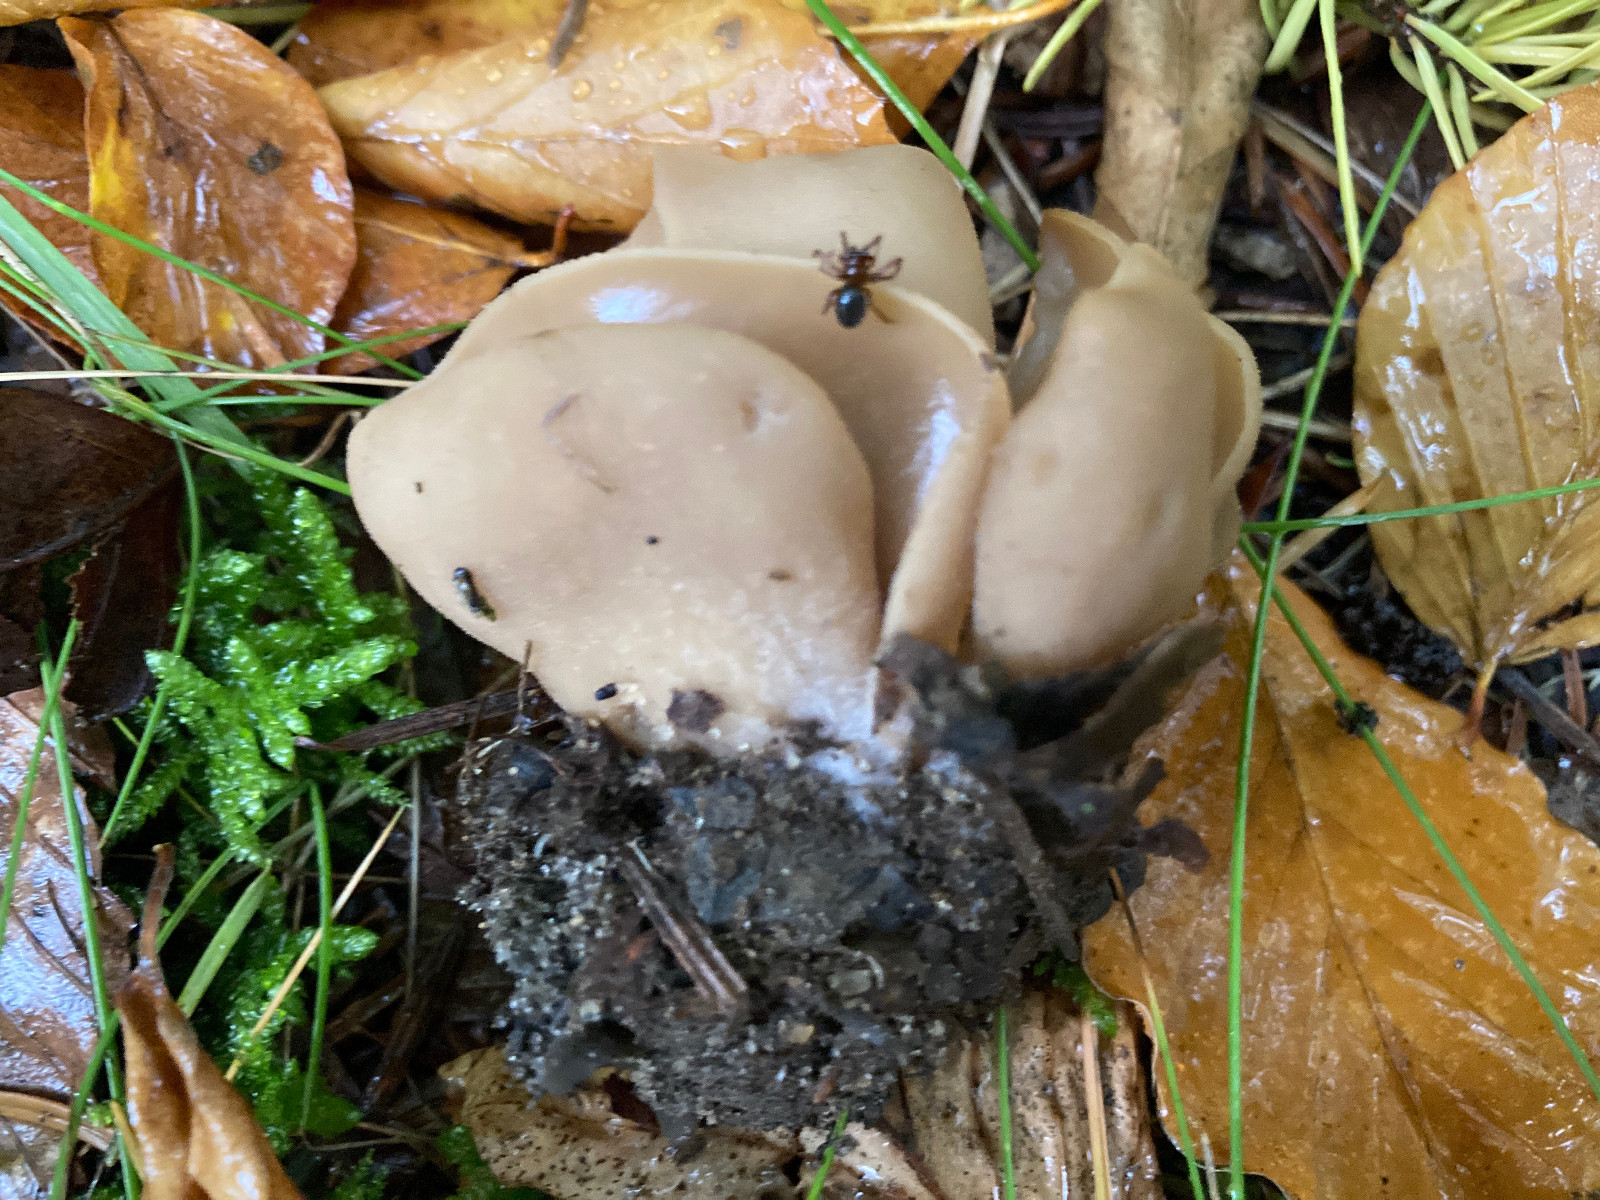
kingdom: Fungi
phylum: Ascomycota
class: Pezizomycetes
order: Pezizales
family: Otideaceae
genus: Otidea
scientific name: Otidea alutacea
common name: læder-ørebæger
